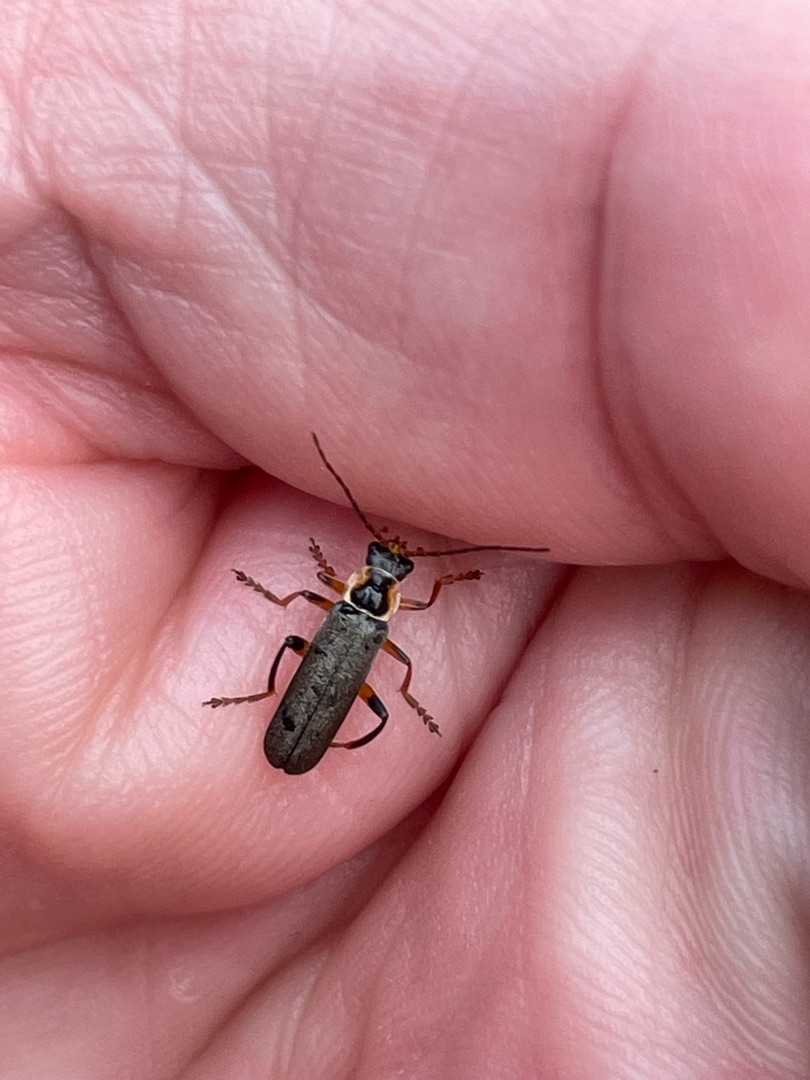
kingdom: Animalia
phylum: Arthropoda
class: Insecta
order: Coleoptera
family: Cantharidae
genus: Cantharis
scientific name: Cantharis nigricans
